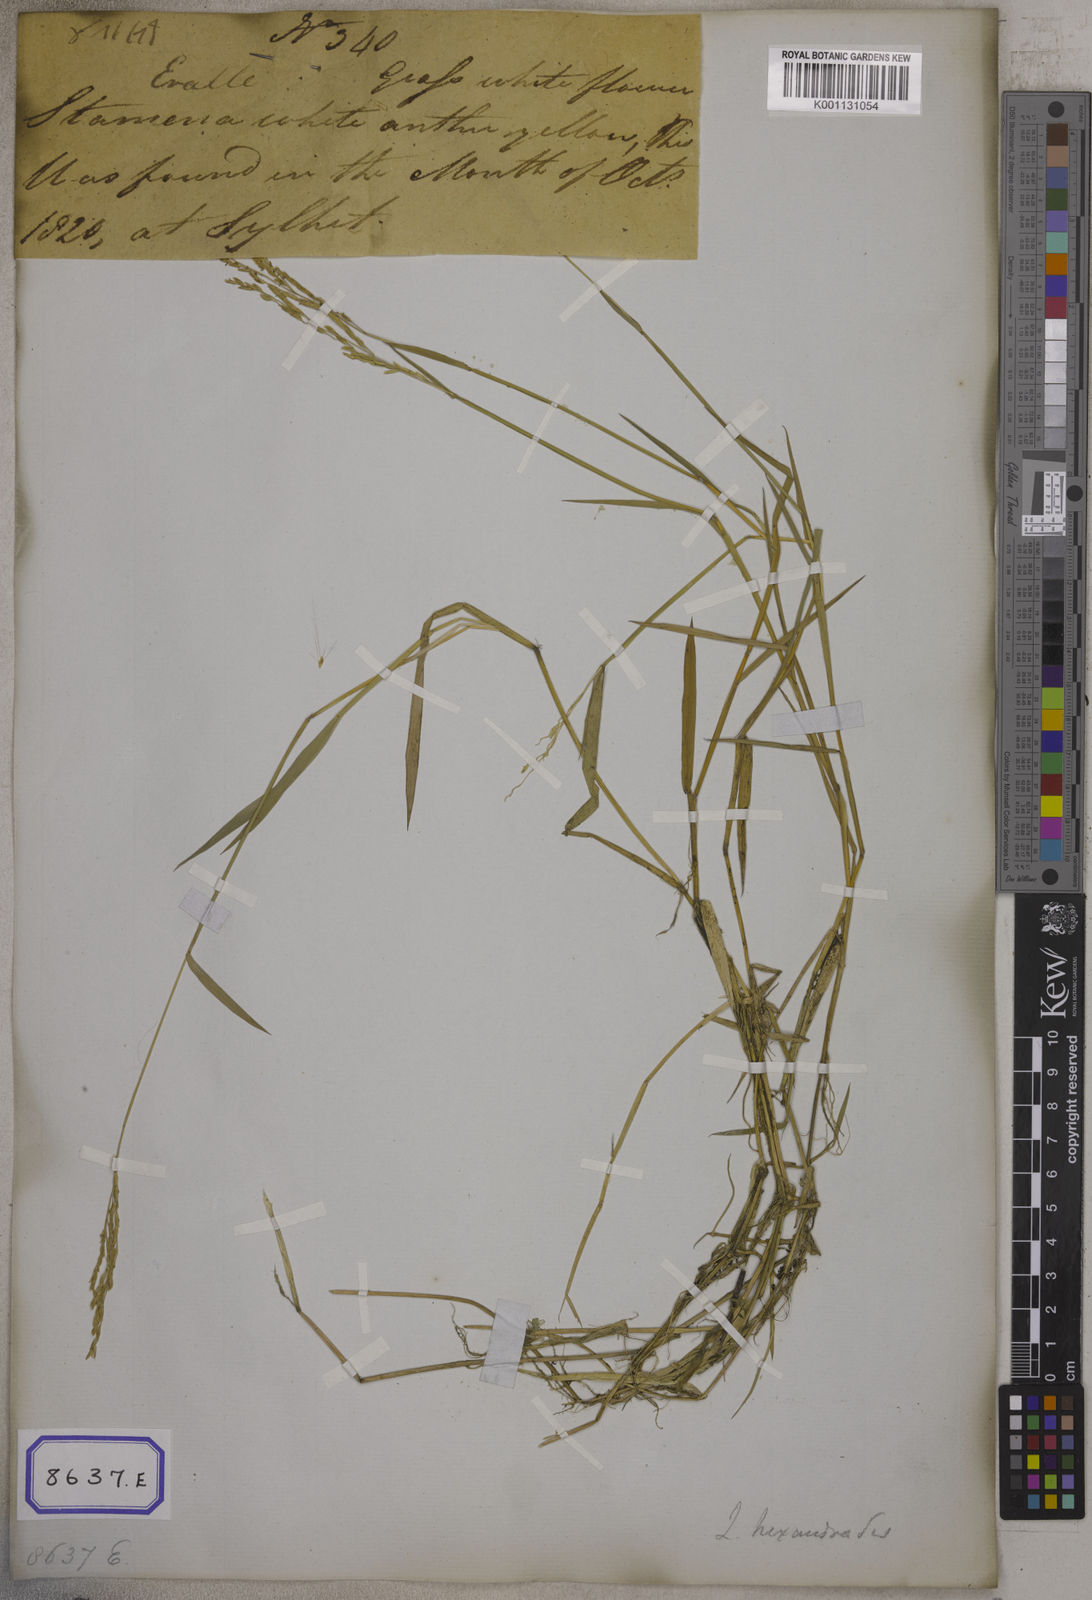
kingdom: Plantae
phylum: Tracheophyta
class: Liliopsida
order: Poales
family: Poaceae
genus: Leersia
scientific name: Leersia oryzoides
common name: Cut-grass
